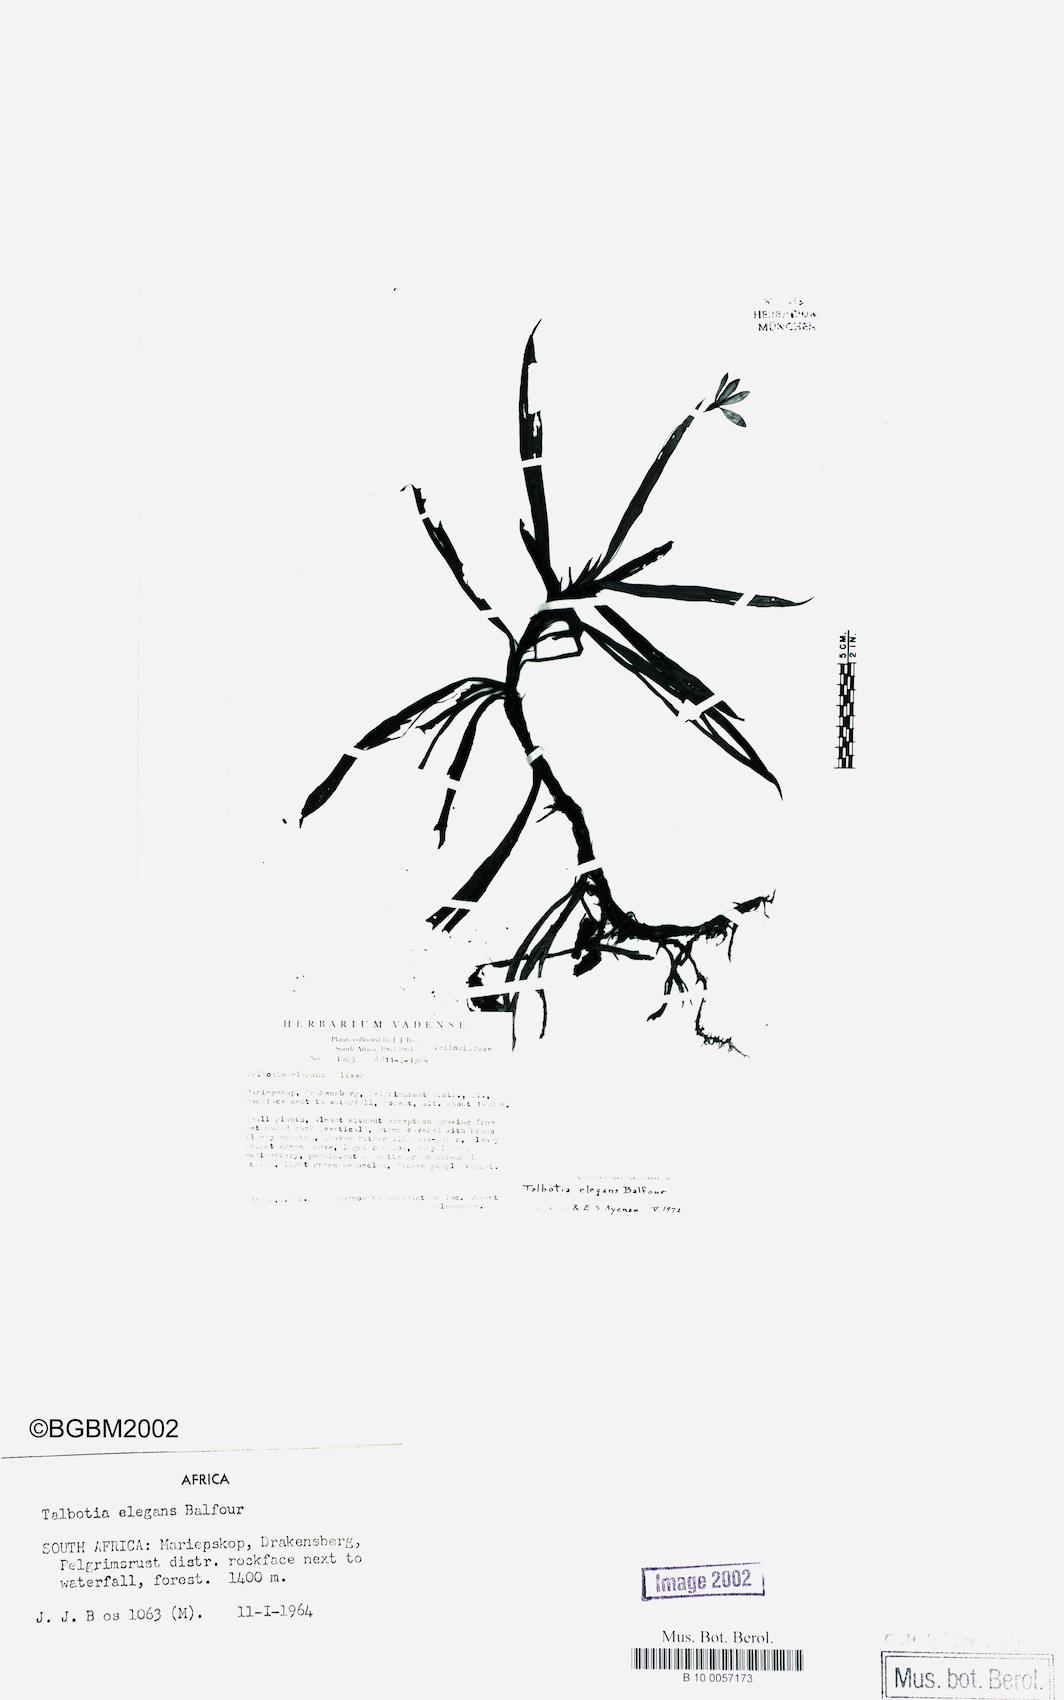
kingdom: Plantae
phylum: Tracheophyta
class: Liliopsida
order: Pandanales
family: Velloziaceae
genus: Xerophyta
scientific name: Xerophyta elegans
